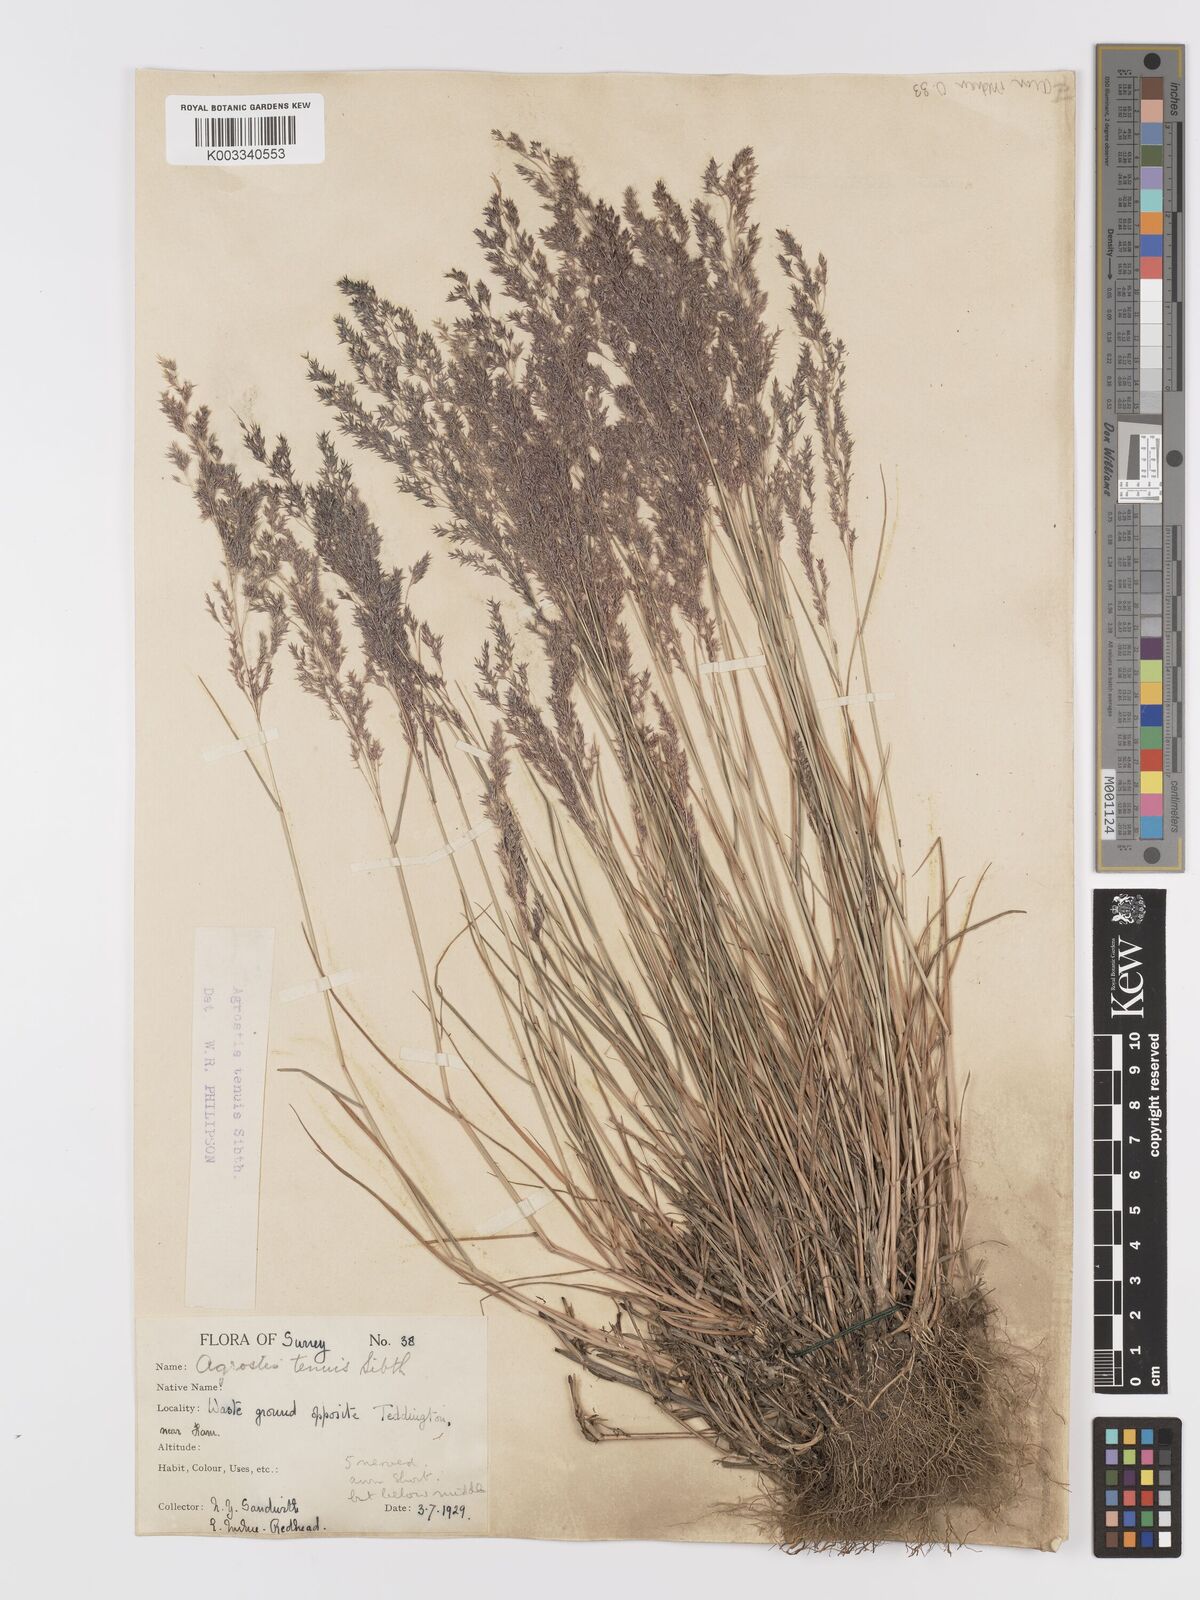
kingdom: Plantae
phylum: Tracheophyta
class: Liliopsida
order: Poales
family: Poaceae
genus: Agrostis
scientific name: Agrostis capillaris
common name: Colonial bentgrass
